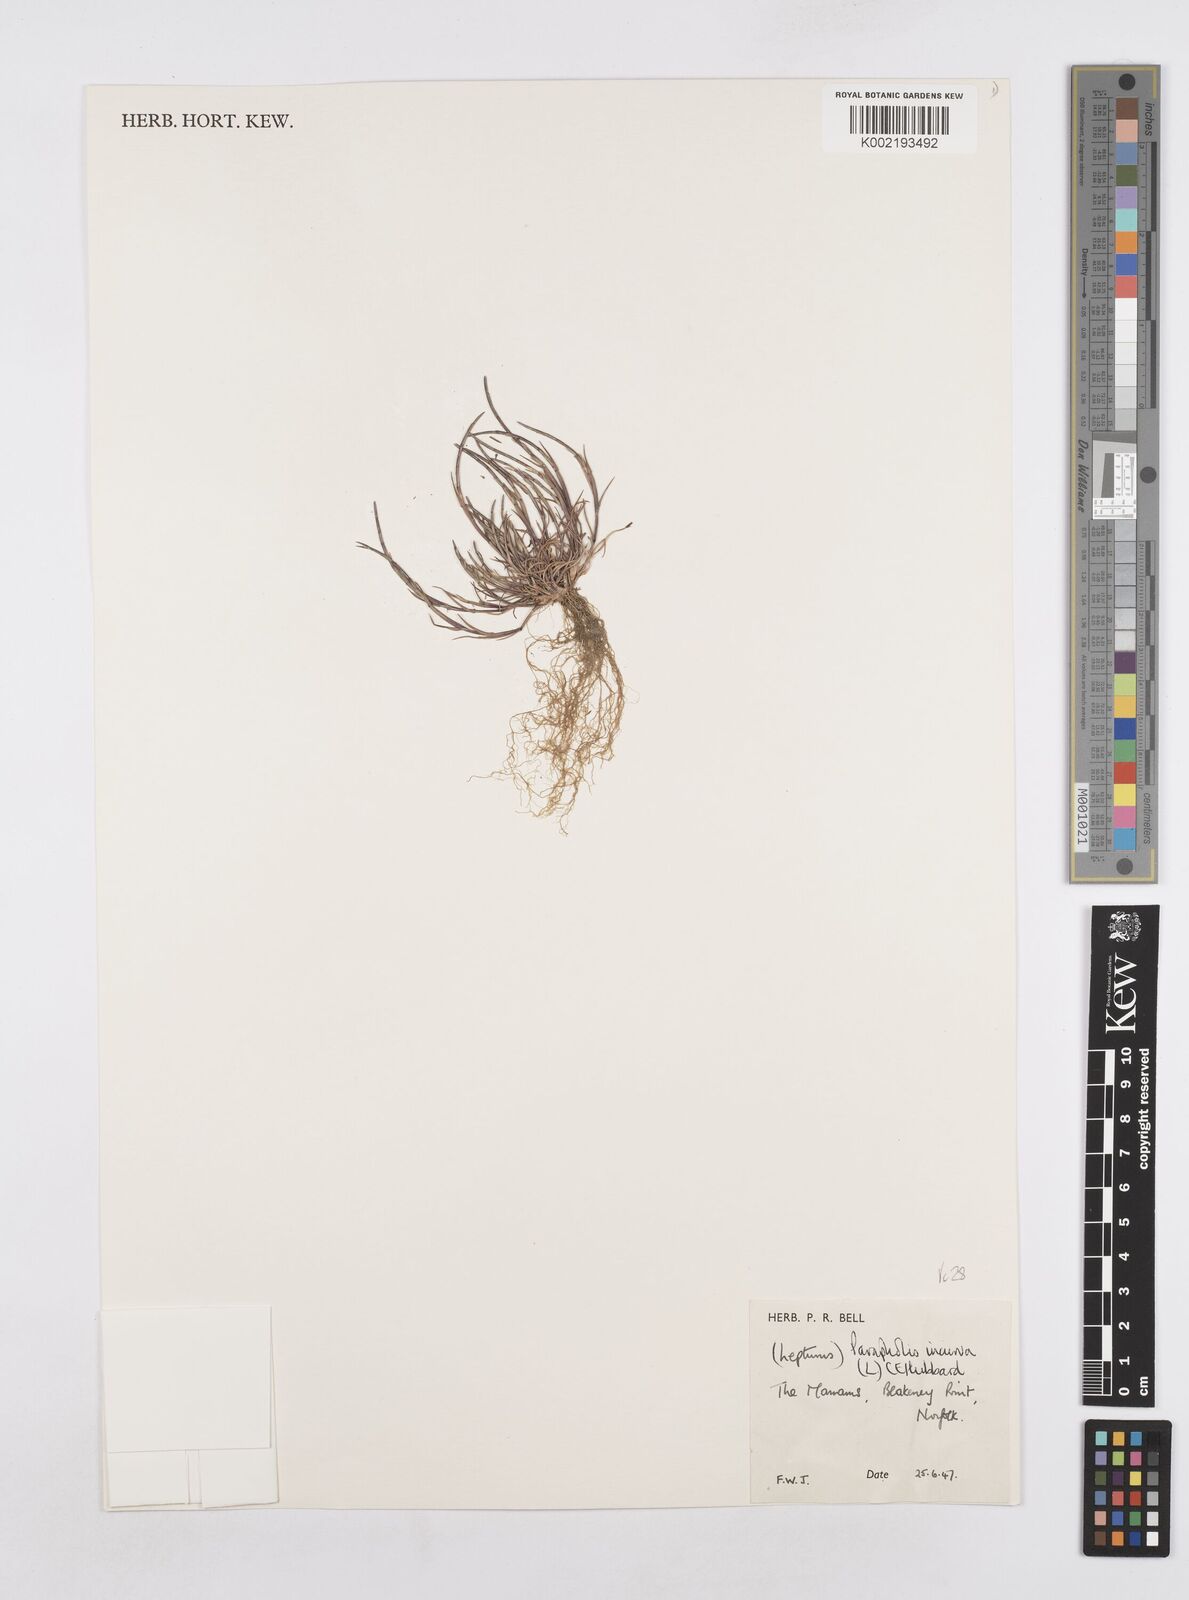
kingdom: Plantae
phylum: Tracheophyta
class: Liliopsida
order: Poales
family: Poaceae
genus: Parapholis
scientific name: Parapholis incurva
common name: Curved sicklegrass
